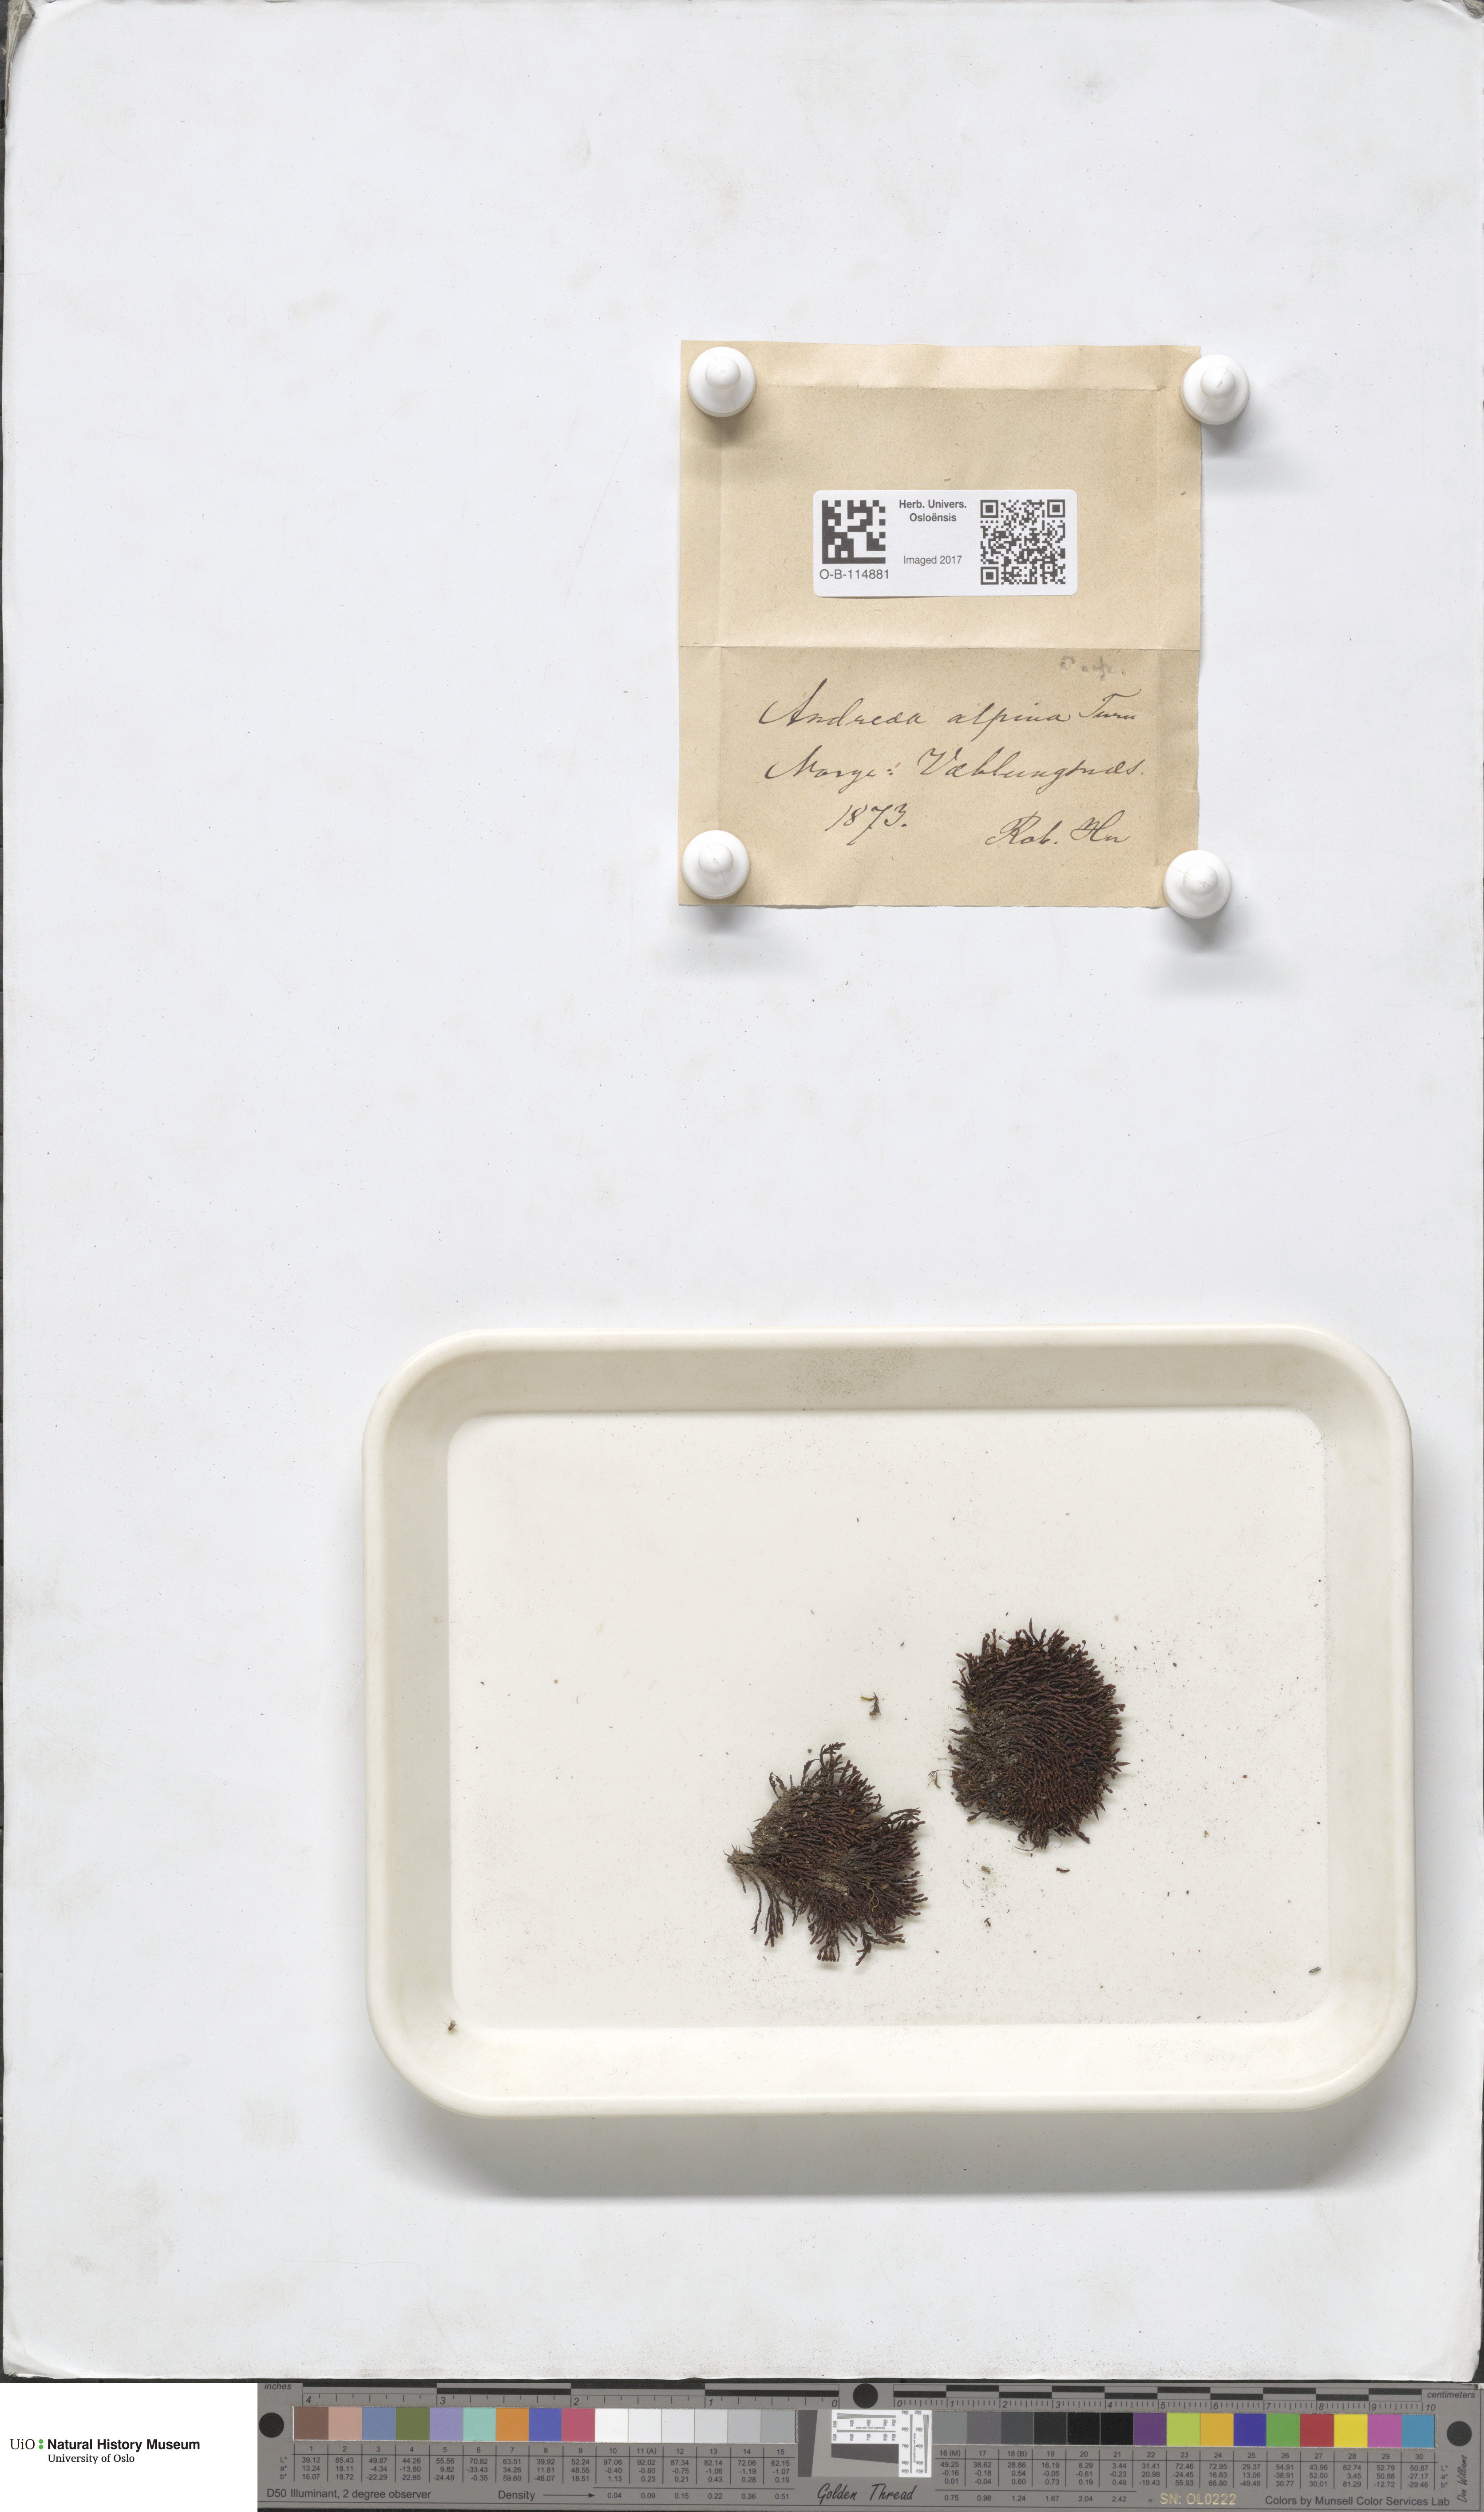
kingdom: Plantae
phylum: Bryophyta
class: Andreaeopsida
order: Andreaeales
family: Andreaeaceae
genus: Andreaea
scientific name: Andreaea hookeri
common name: Alpine rock-moss
